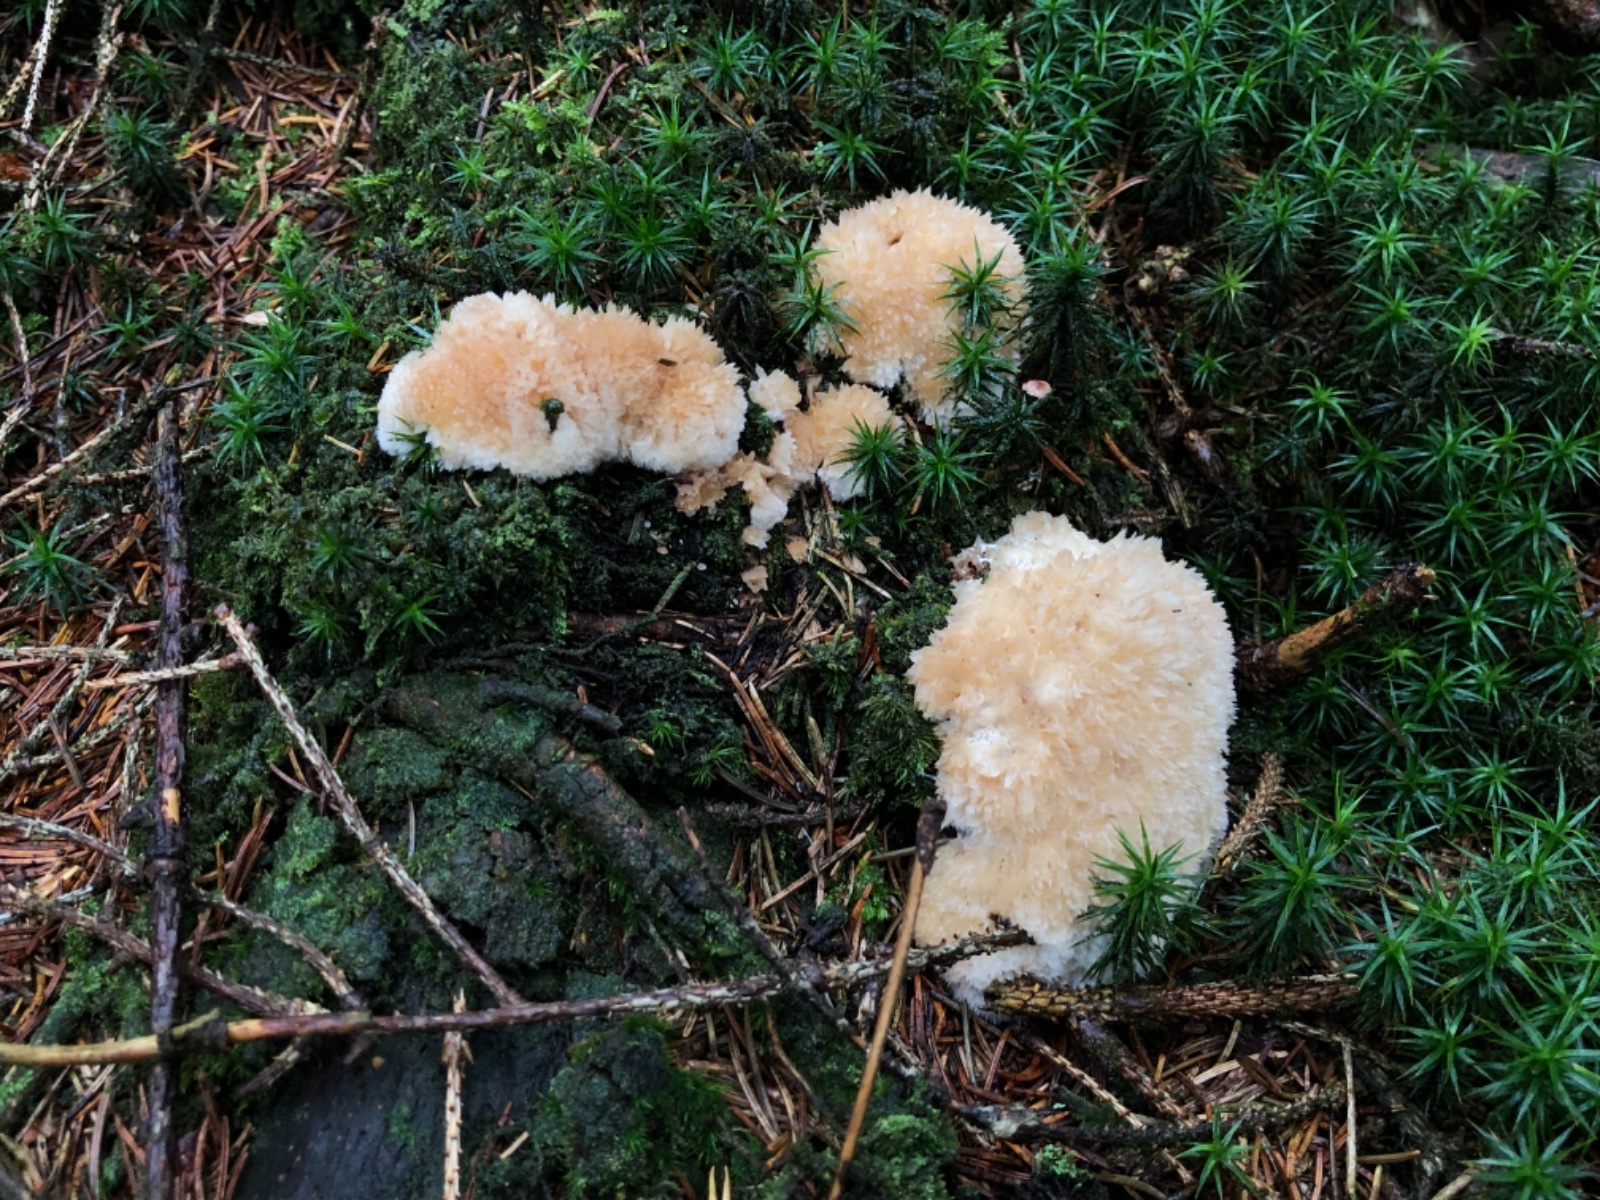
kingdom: Fungi
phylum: Basidiomycota
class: Agaricomycetes
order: Polyporales
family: Dacryobolaceae
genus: Postia
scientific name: Postia ptychogaster
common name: støvende kødporesvamp
